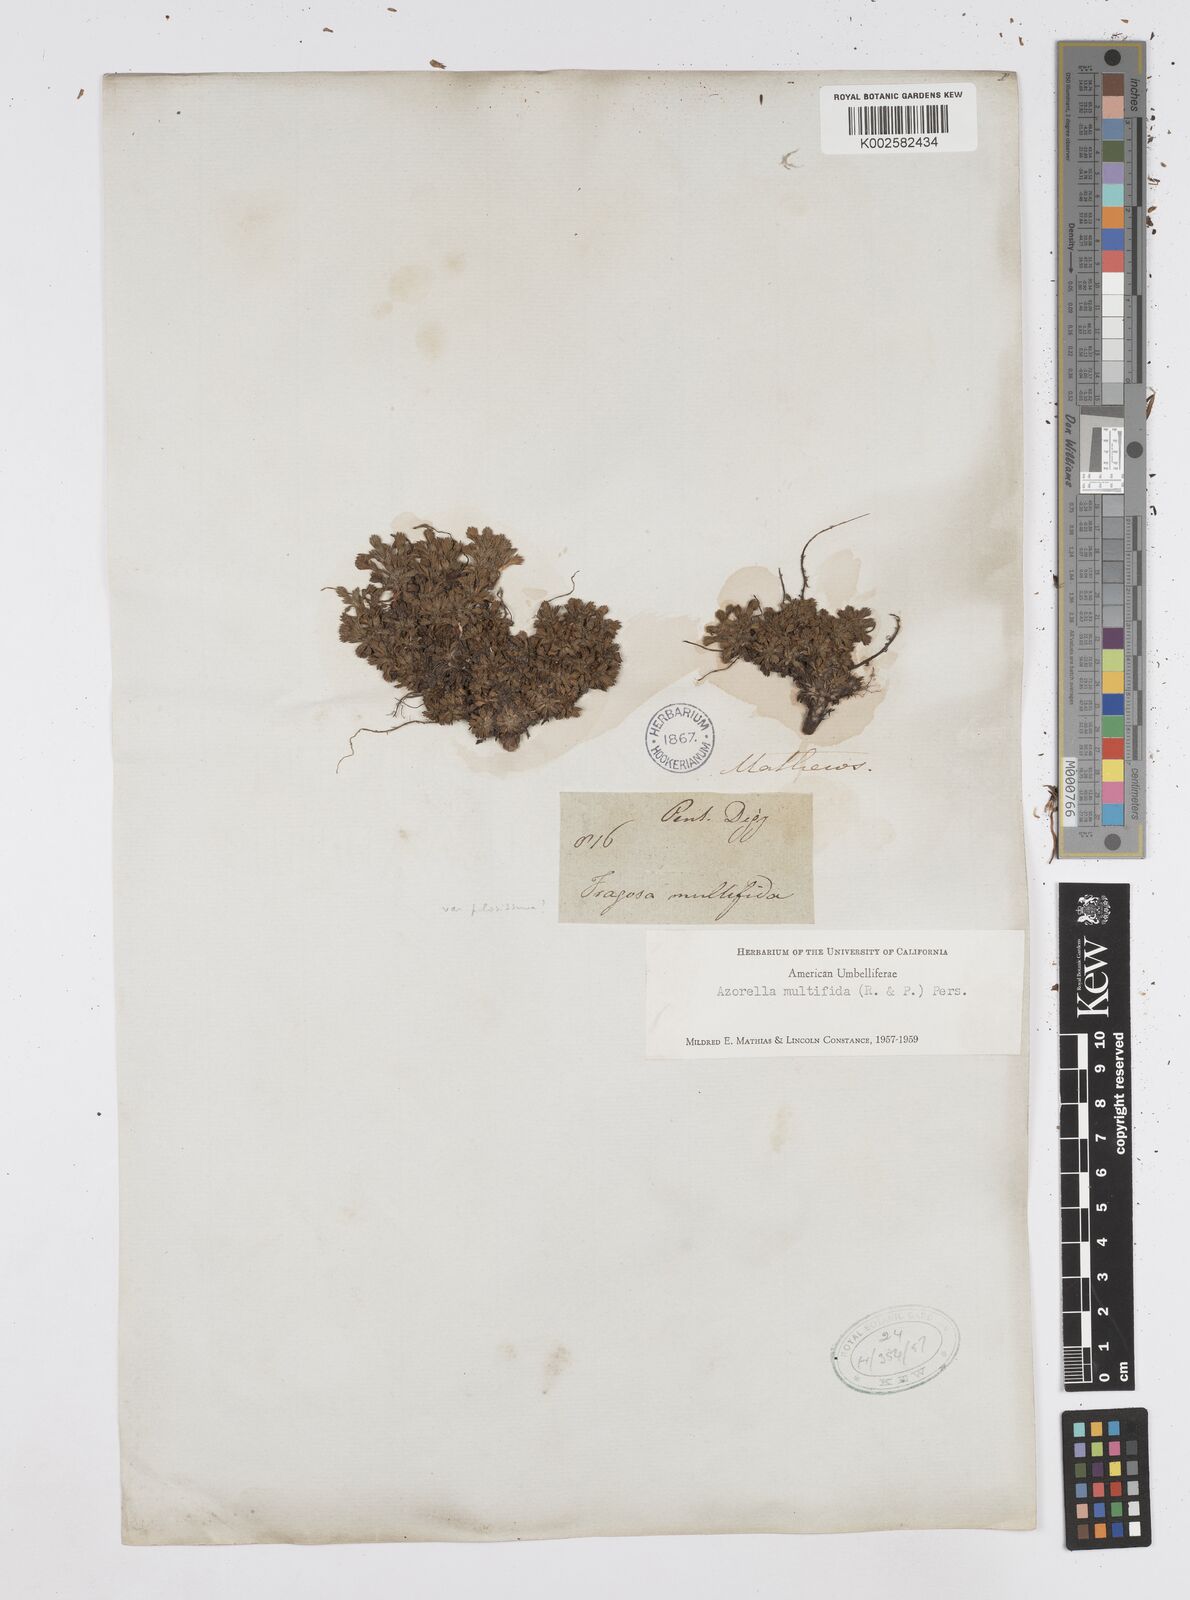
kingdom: Plantae
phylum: Tracheophyta
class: Magnoliopsida
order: Apiales
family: Apiaceae
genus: Azorella
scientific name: Azorella multifida
